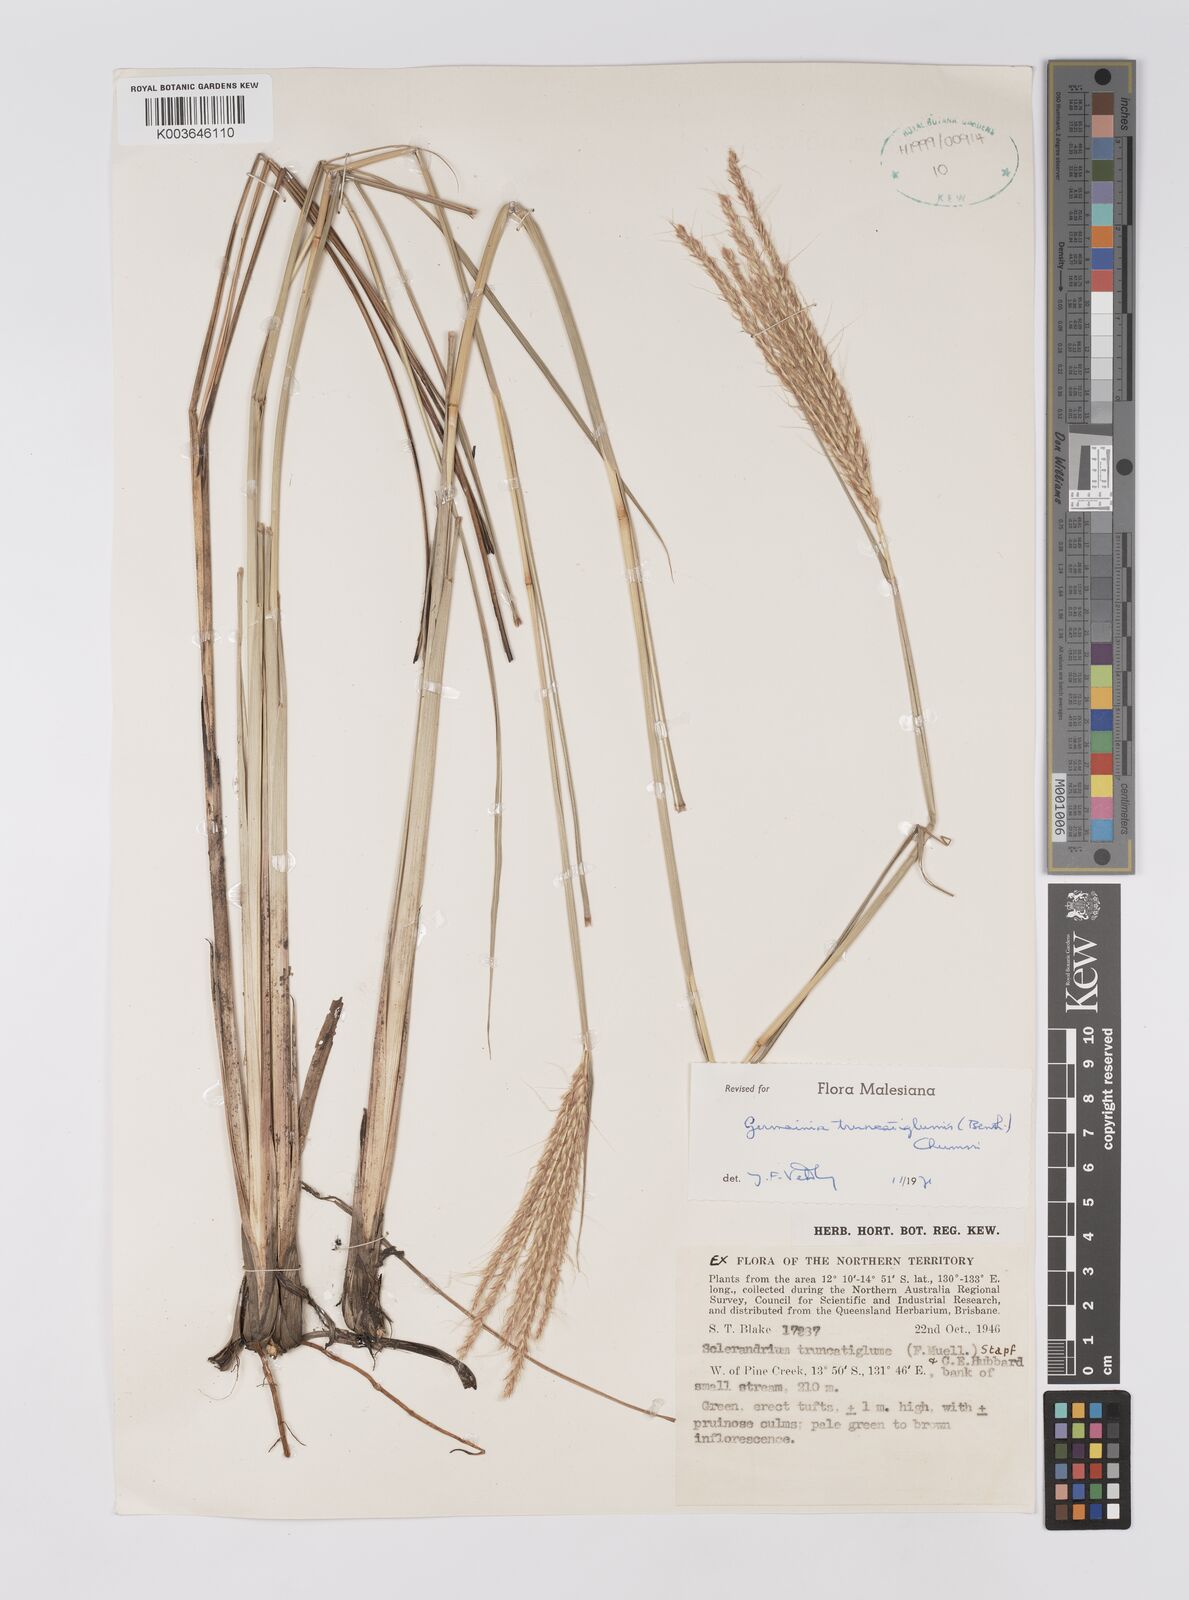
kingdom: Plantae
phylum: Tracheophyta
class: Liliopsida
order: Poales
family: Poaceae
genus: Germainia
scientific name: Germainia truncatiglumis
